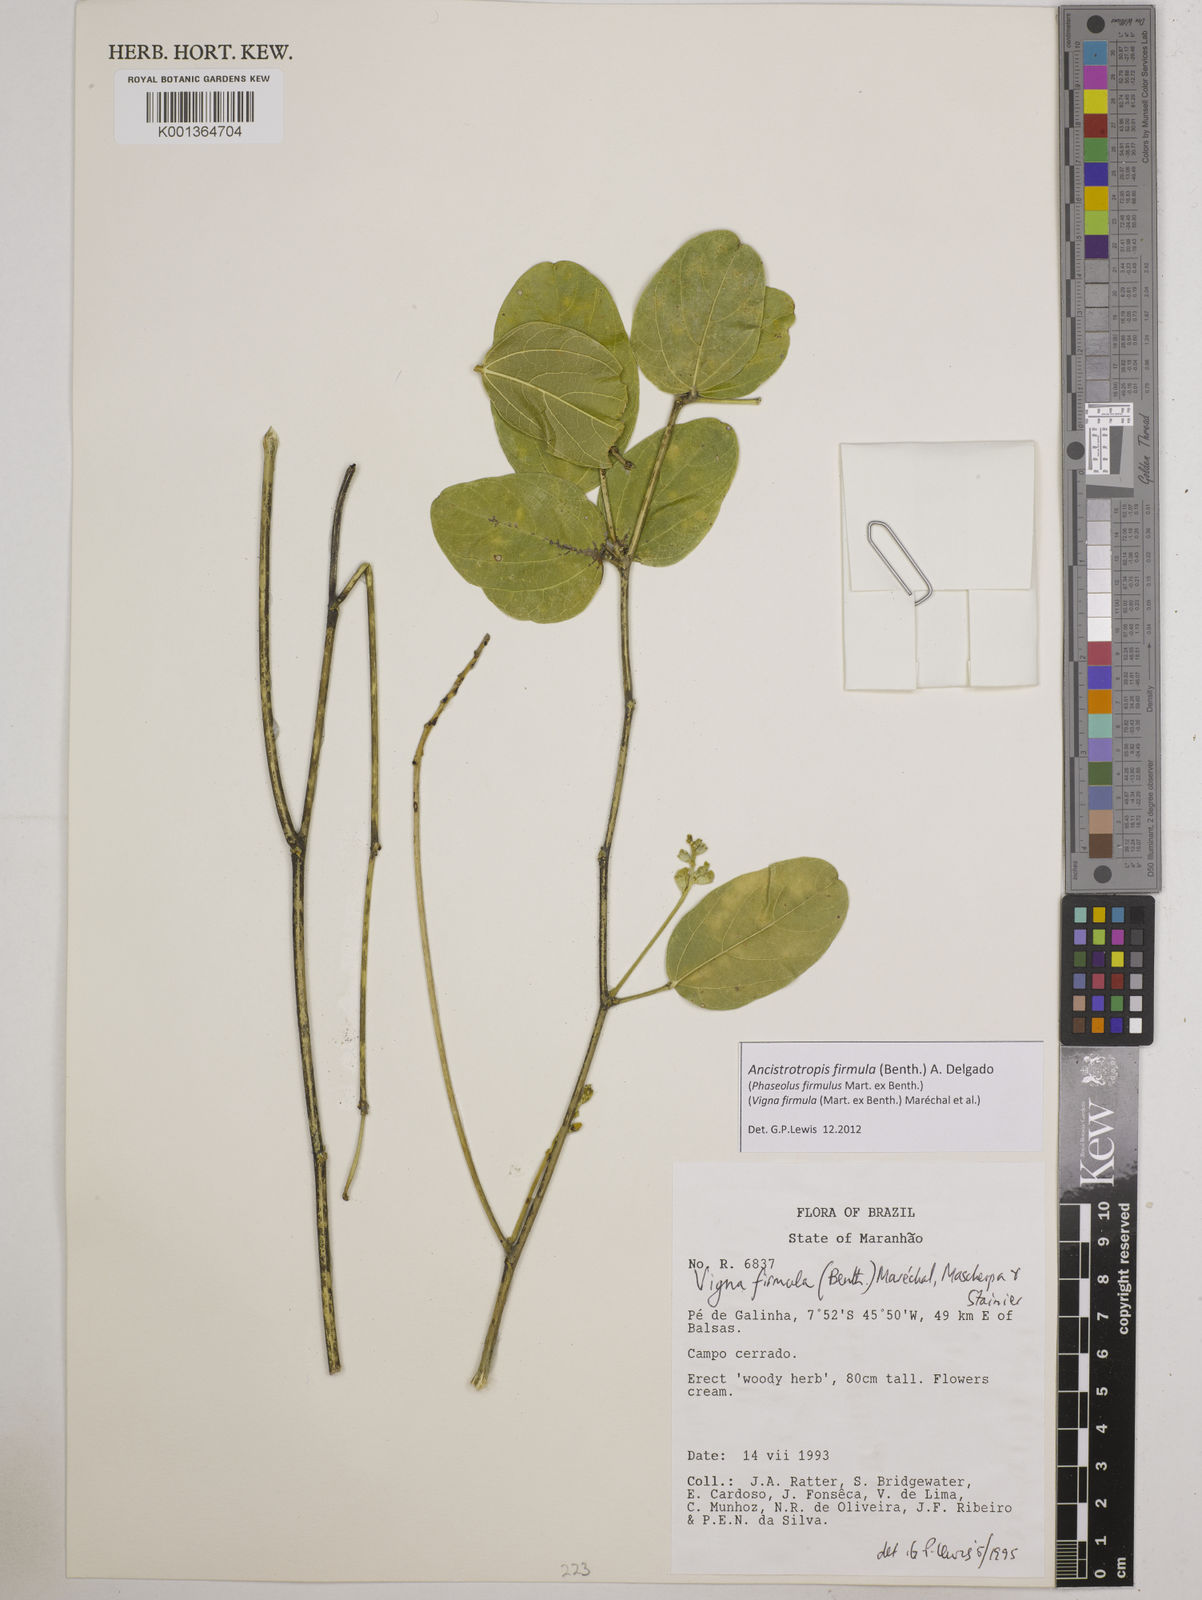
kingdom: Plantae
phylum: Tracheophyta
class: Magnoliopsida
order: Fabales
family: Fabaceae
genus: Ancistrotropis
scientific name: Ancistrotropis firmula
